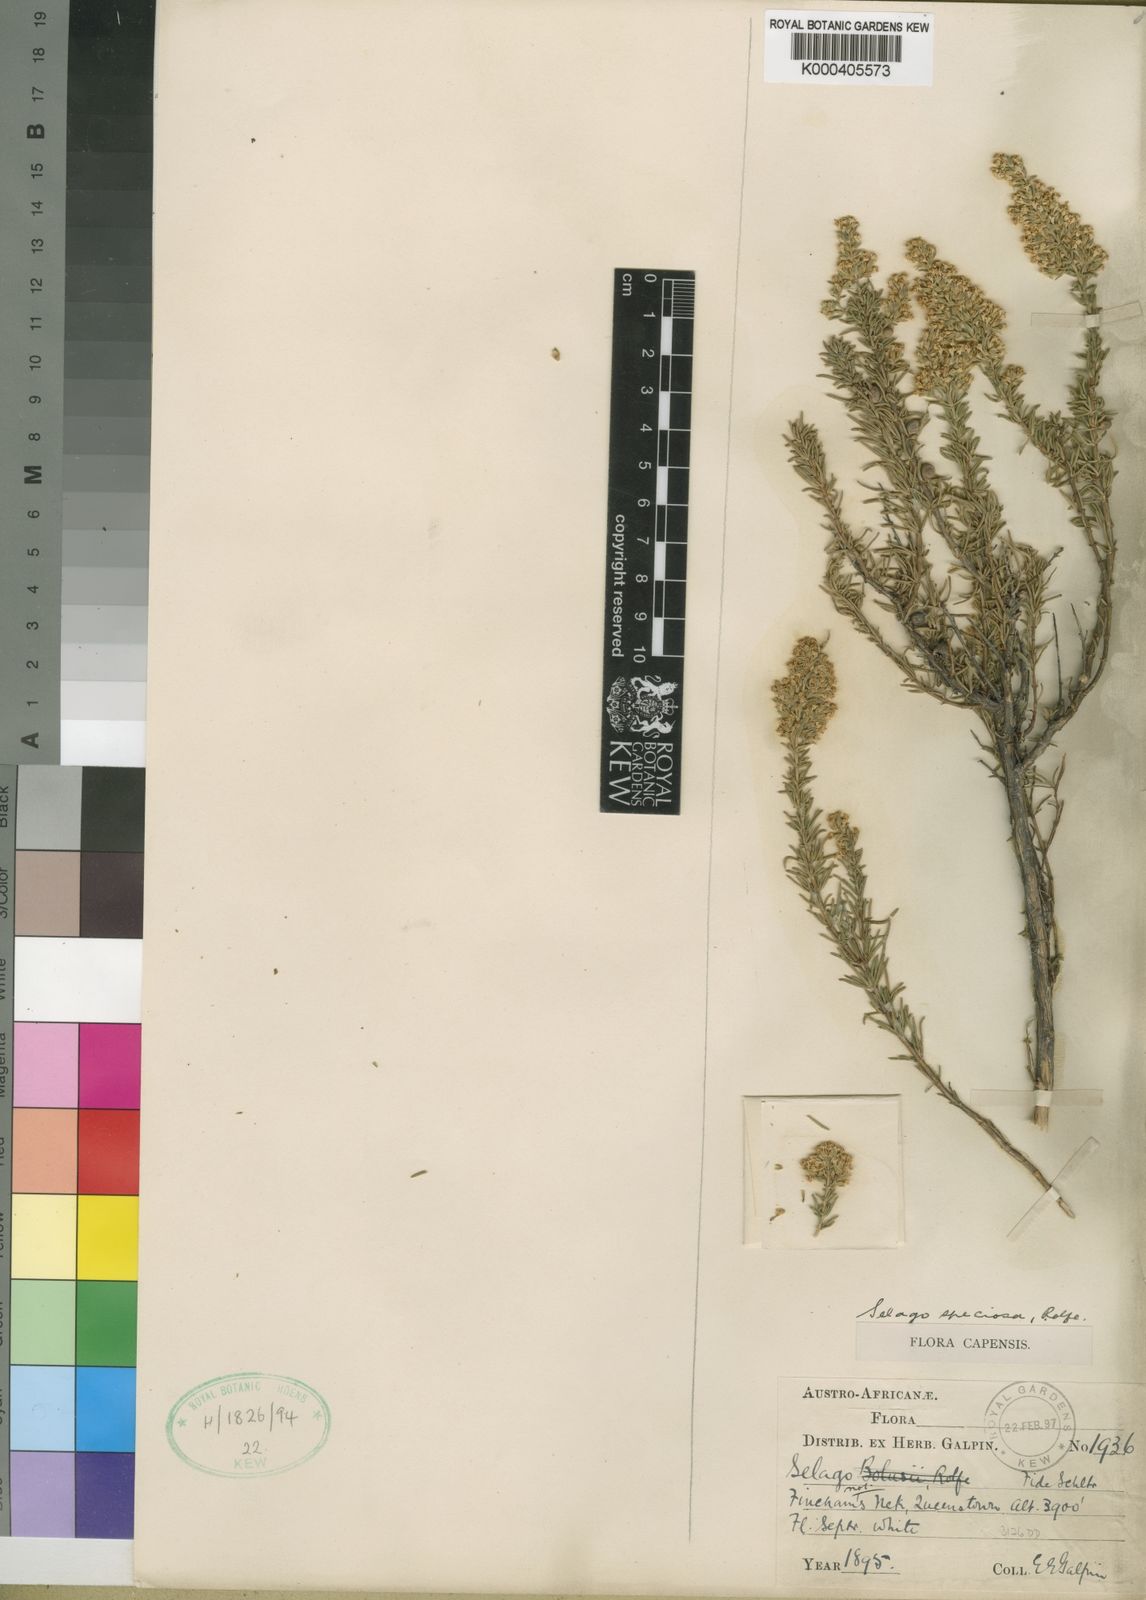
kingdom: Plantae
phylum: Tracheophyta
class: Magnoliopsida
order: Lamiales
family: Scrophulariaceae
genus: Selago
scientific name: Selago speciosa
